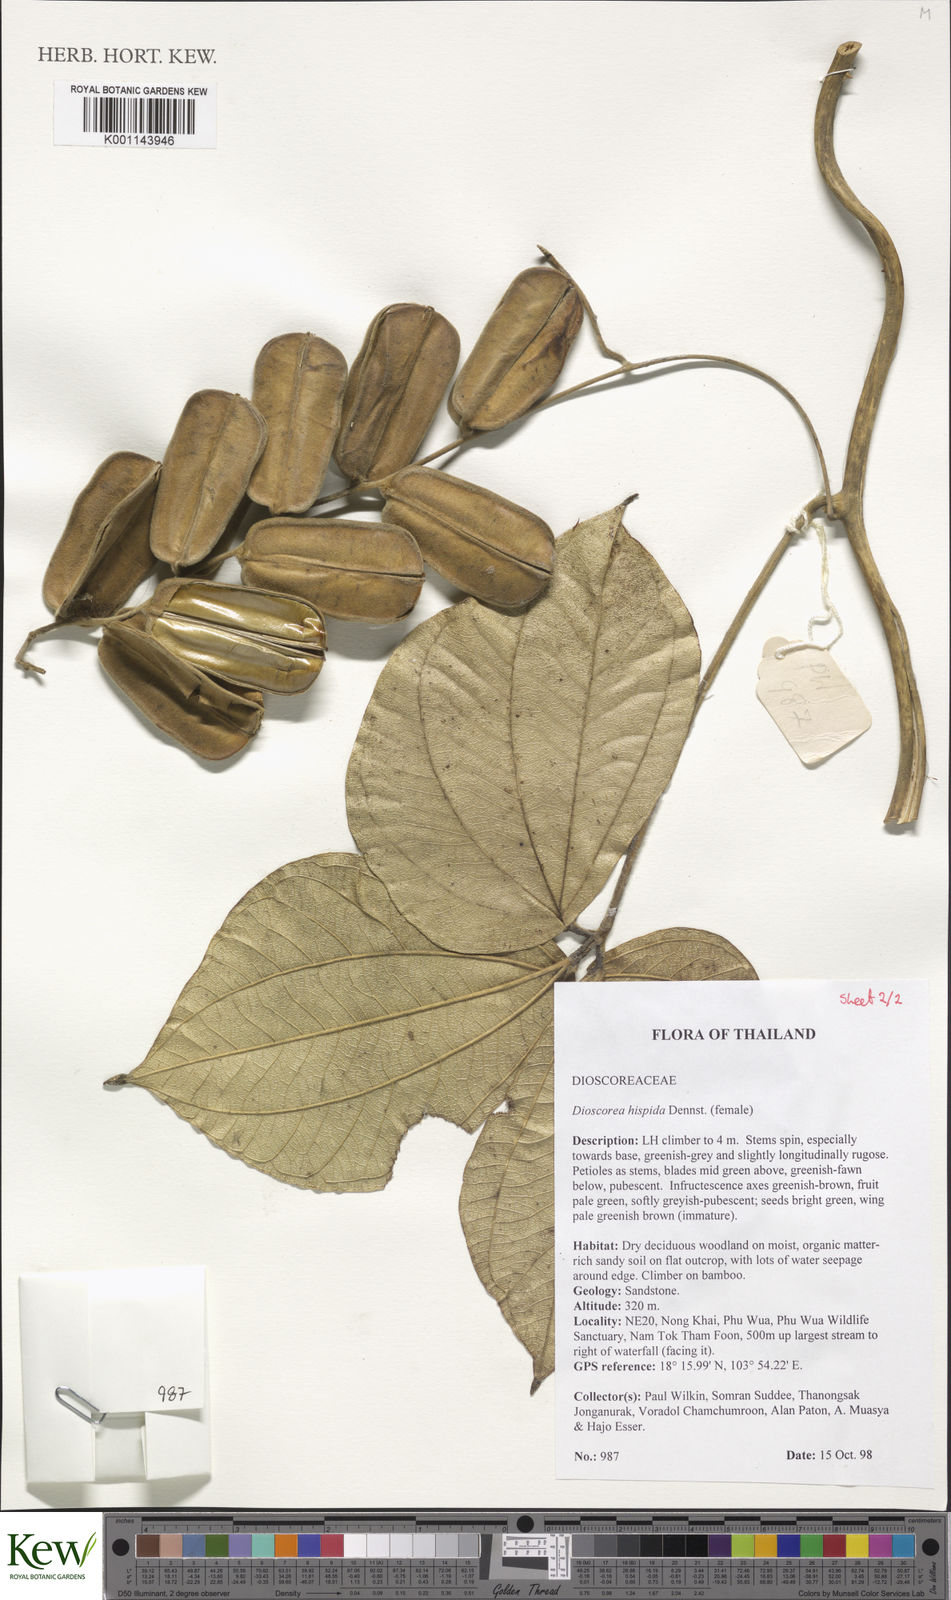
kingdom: Plantae
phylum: Tracheophyta
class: Liliopsida
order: Dioscoreales
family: Dioscoreaceae
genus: Dioscorea
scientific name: Dioscorea hispida
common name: Asiatic bitter yam
